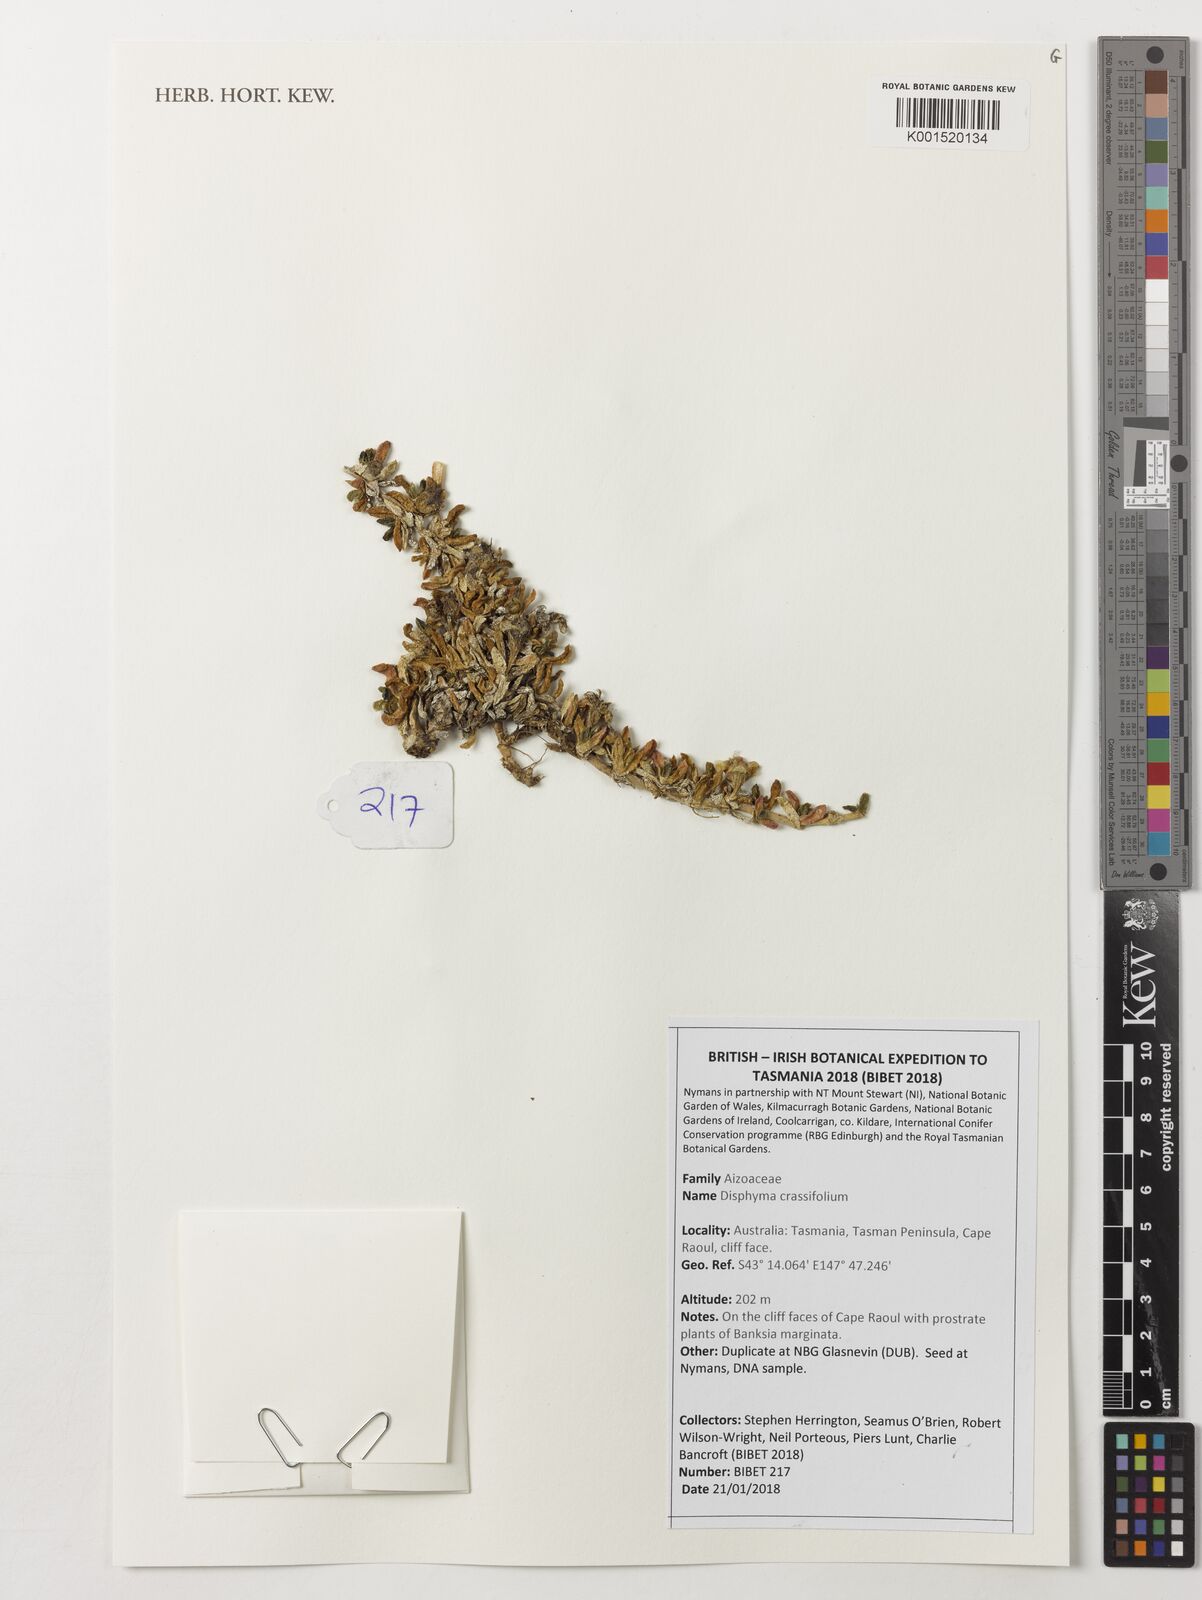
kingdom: Plantae
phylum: Tracheophyta
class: Magnoliopsida
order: Caryophyllales
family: Aizoaceae
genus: Disphyma
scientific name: Disphyma crassifolium
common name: Purple dewplant
